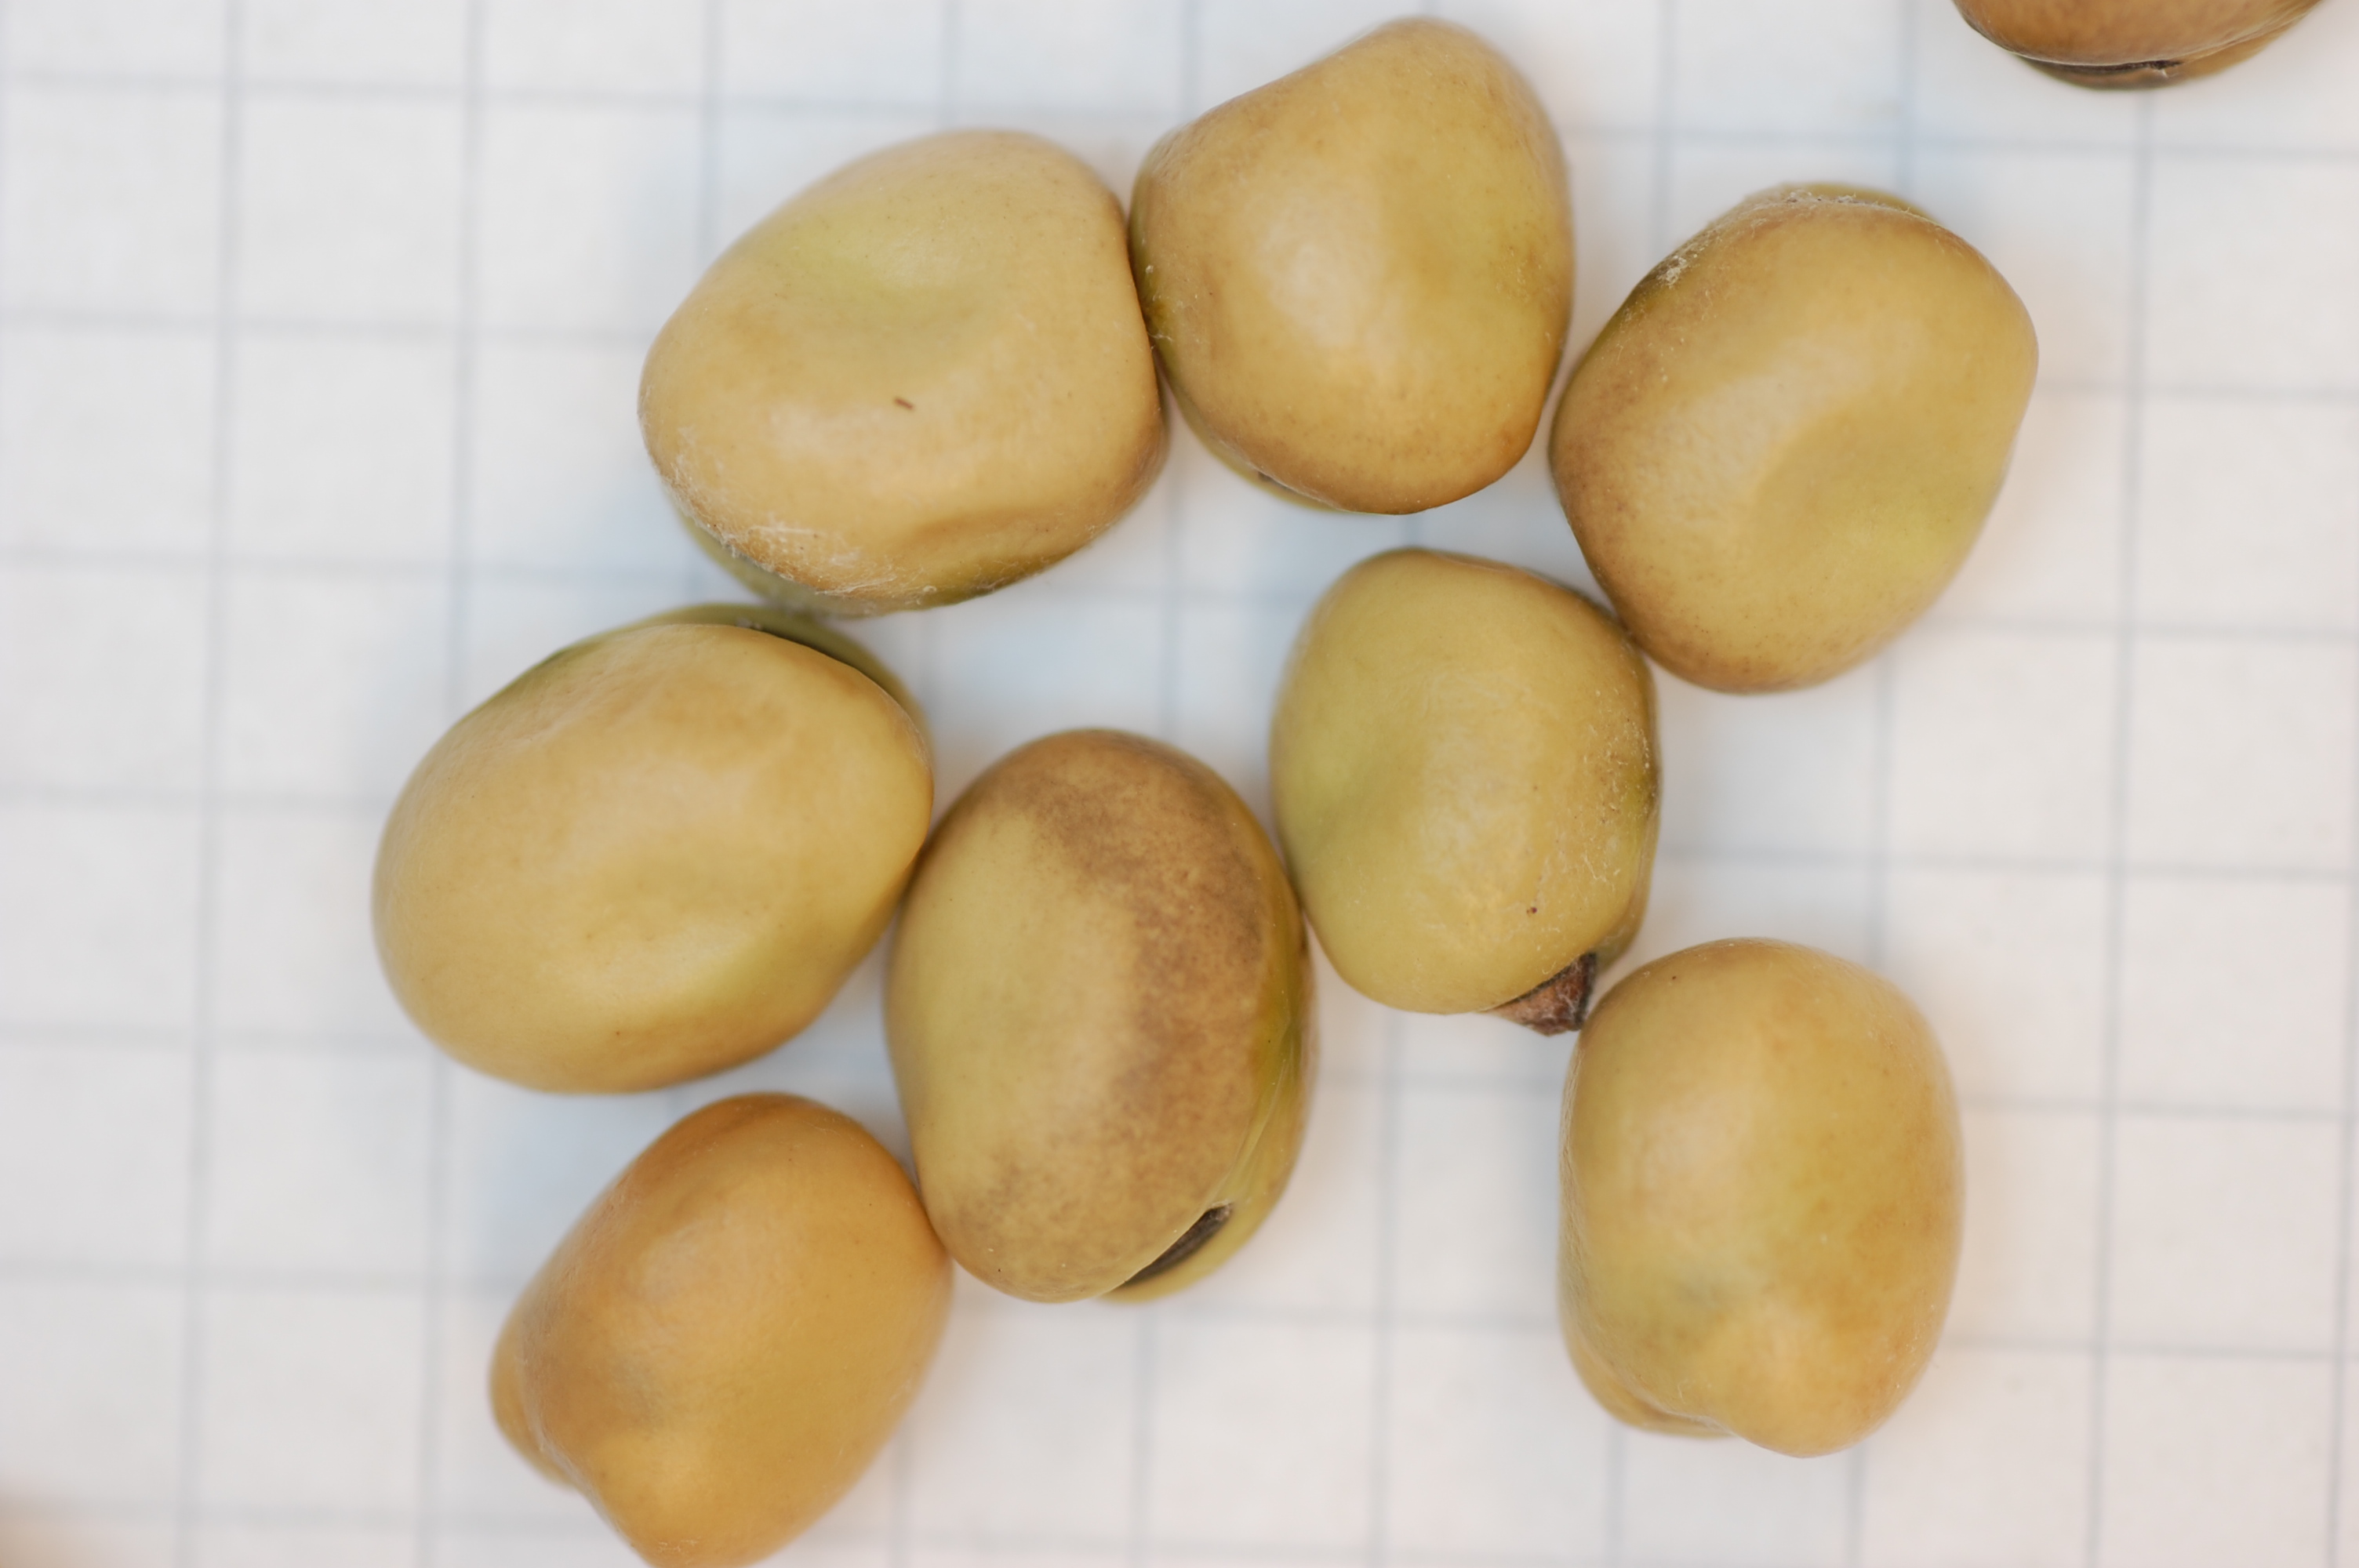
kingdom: Plantae
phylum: Tracheophyta
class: Magnoliopsida
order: Fabales
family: Fabaceae
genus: Vicia
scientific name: Vicia faba
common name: Broad bean
